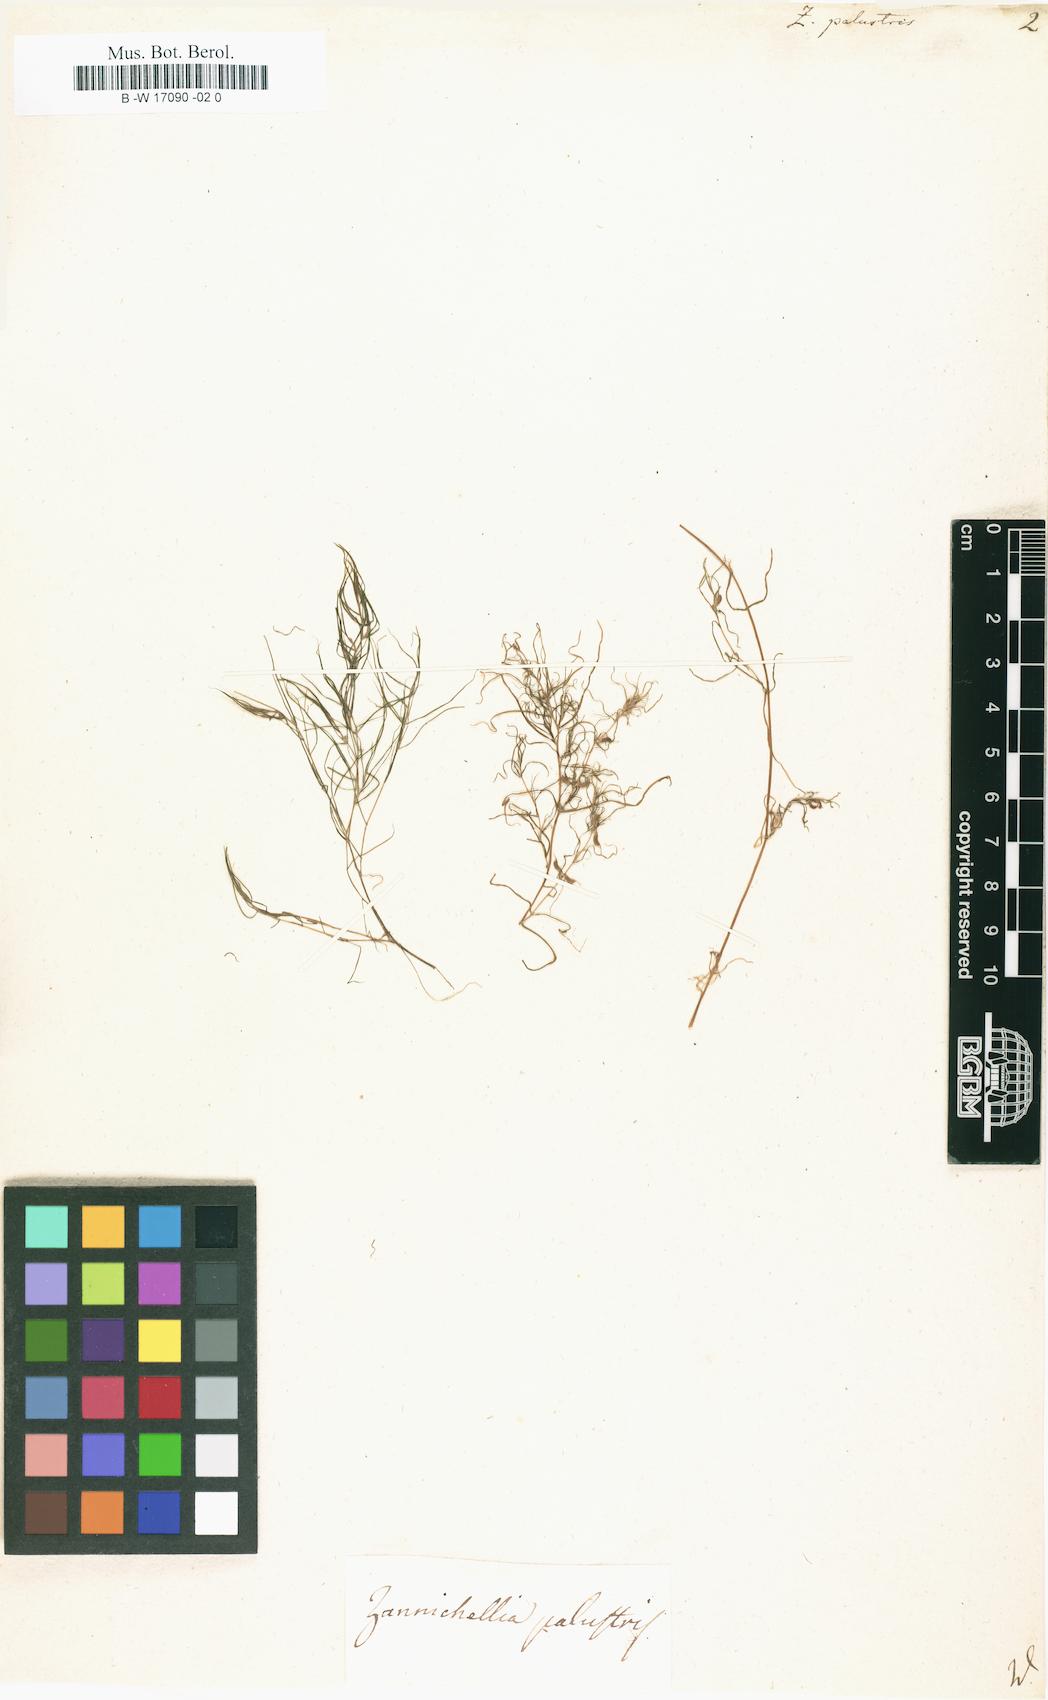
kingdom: Plantae
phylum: Tracheophyta
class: Liliopsida
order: Alismatales
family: Potamogetonaceae
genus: Zannichellia
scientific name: Zannichellia palustris
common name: Horned pondweed
